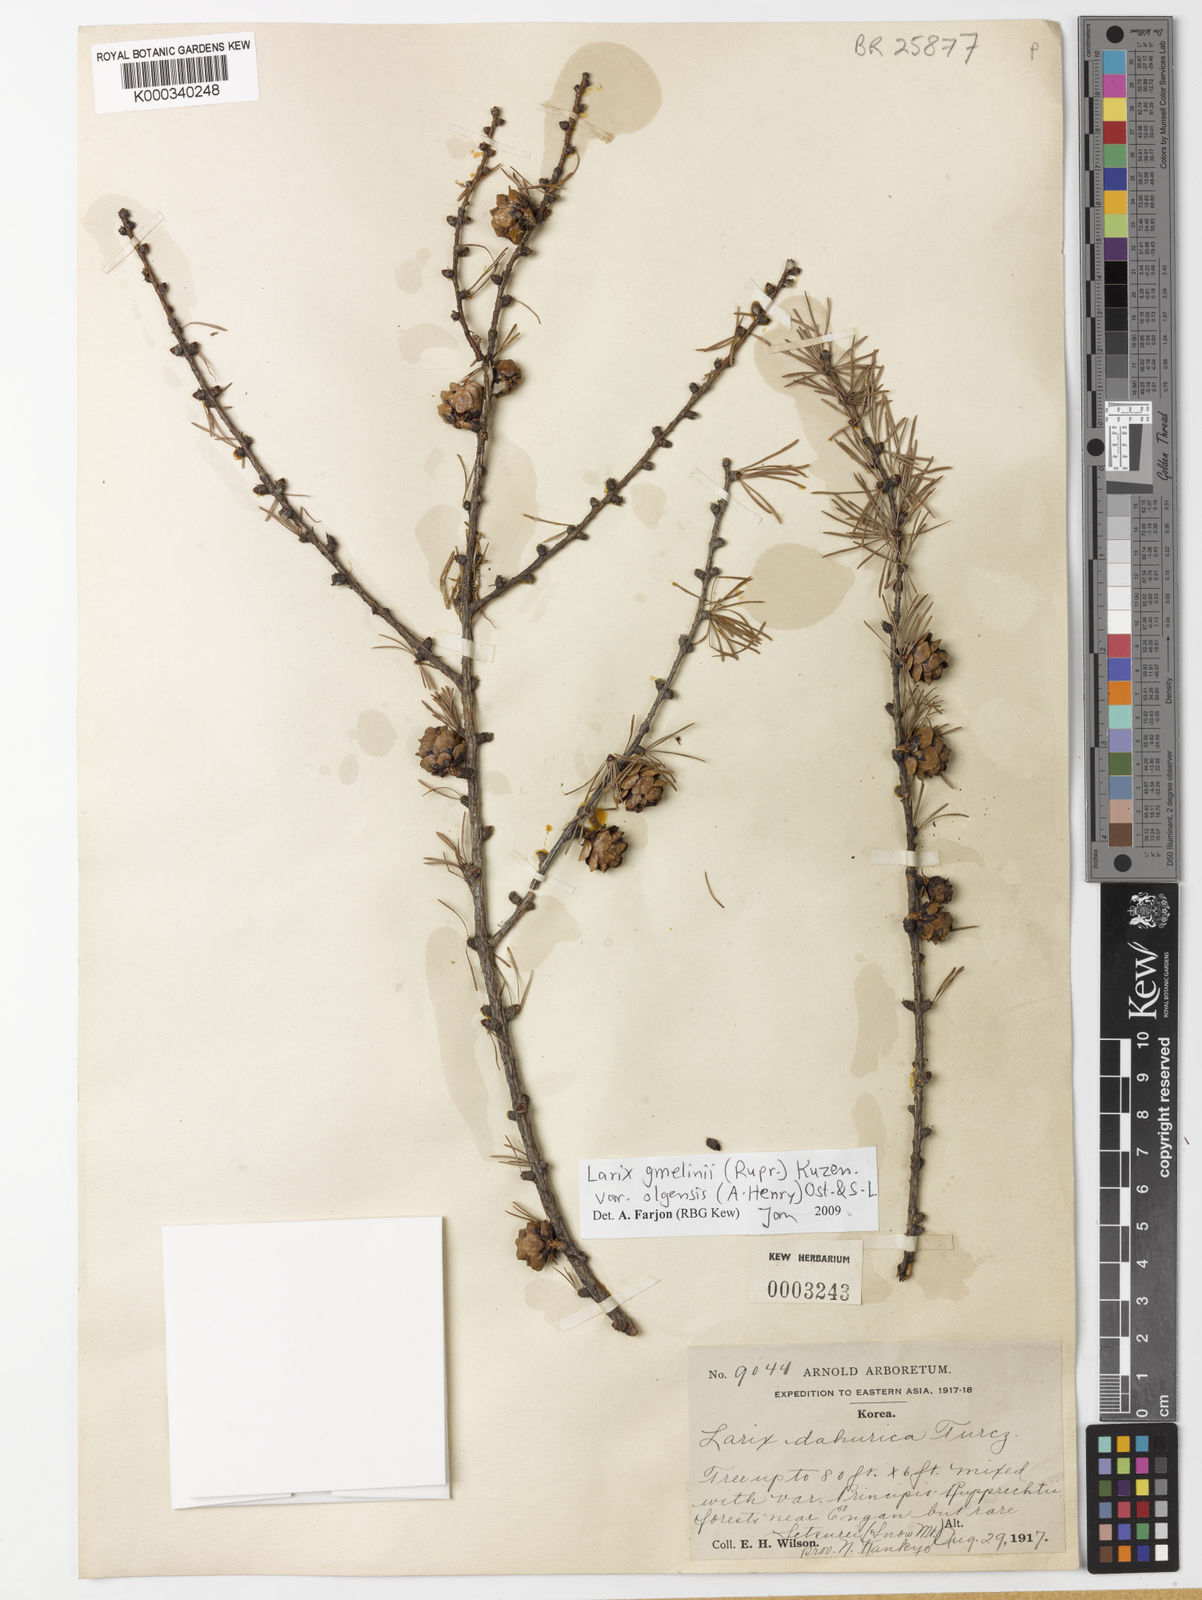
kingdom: Plantae
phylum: Tracheophyta
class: Pinopsida
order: Pinales
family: Pinaceae
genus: Larix
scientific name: Larix gmelinii
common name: Dahurian larch
